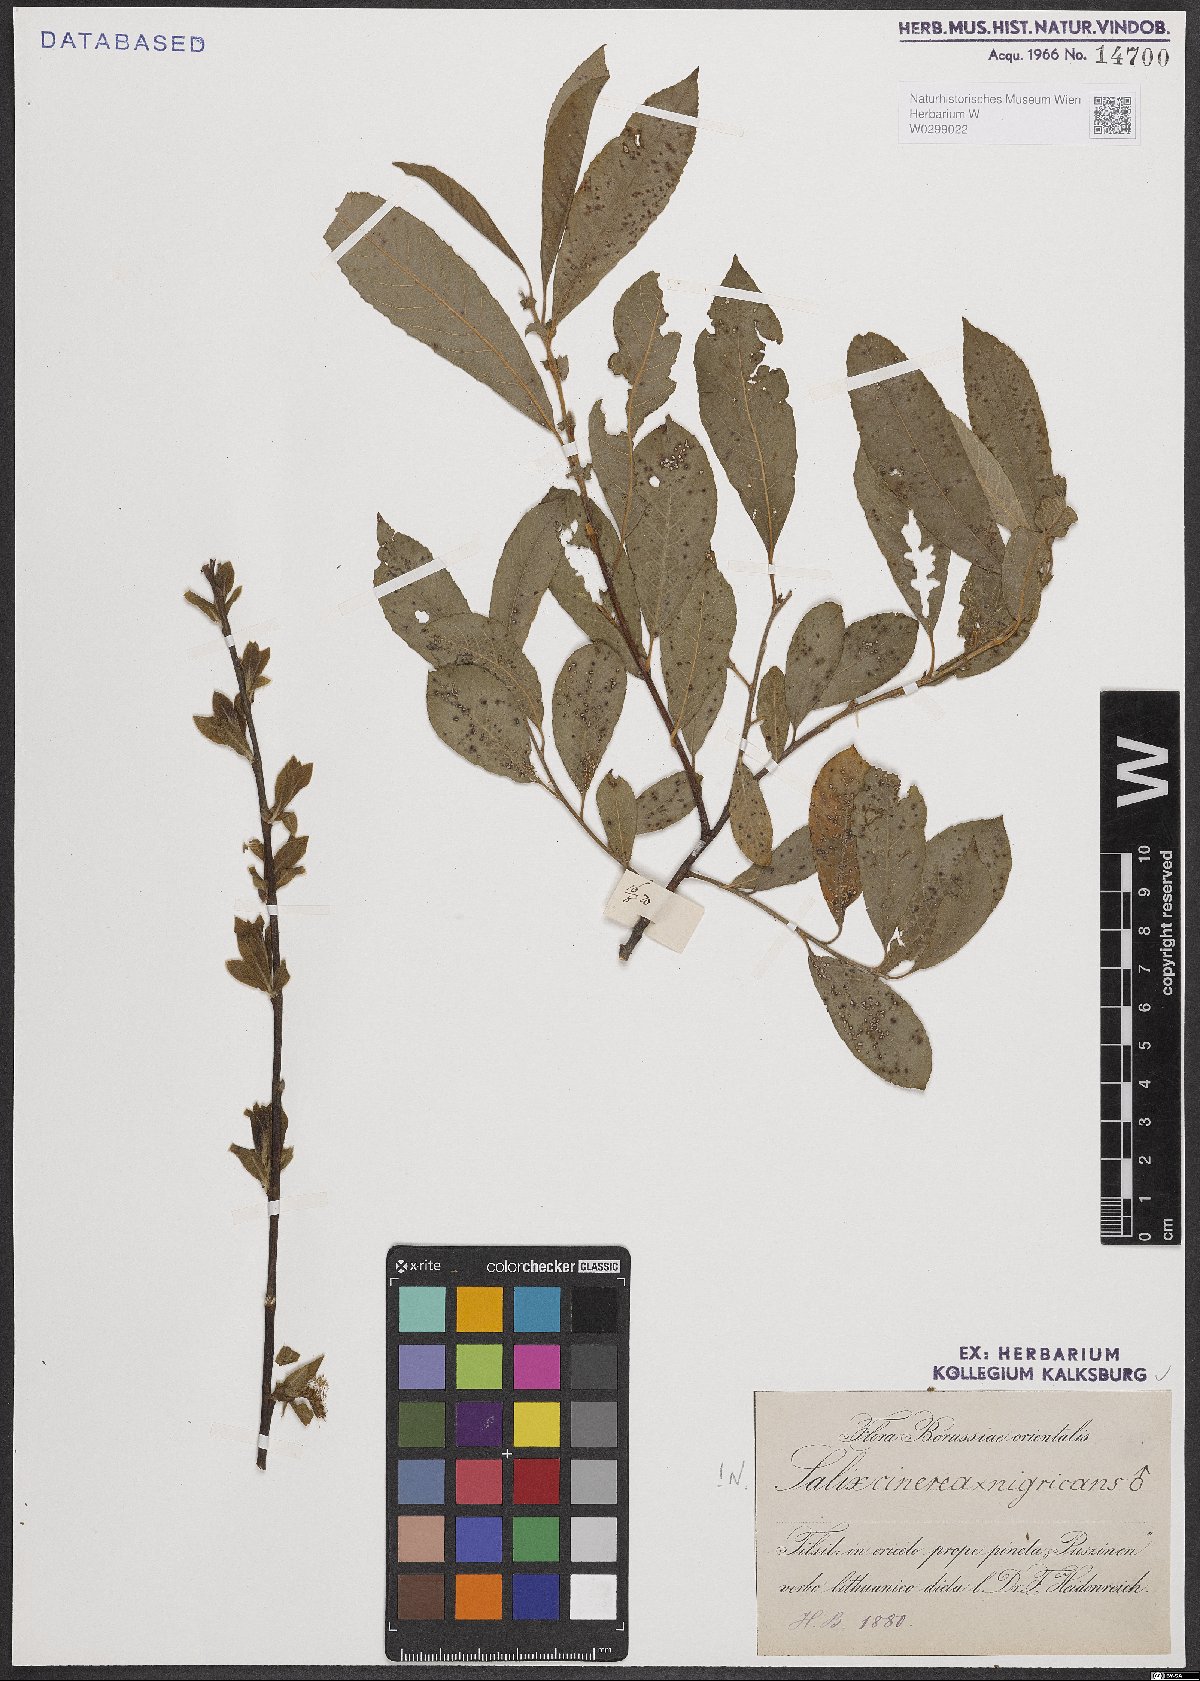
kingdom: Plantae
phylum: Tracheophyta
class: Magnoliopsida
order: Malpighiales
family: Salicaceae
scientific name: Salicaceae
